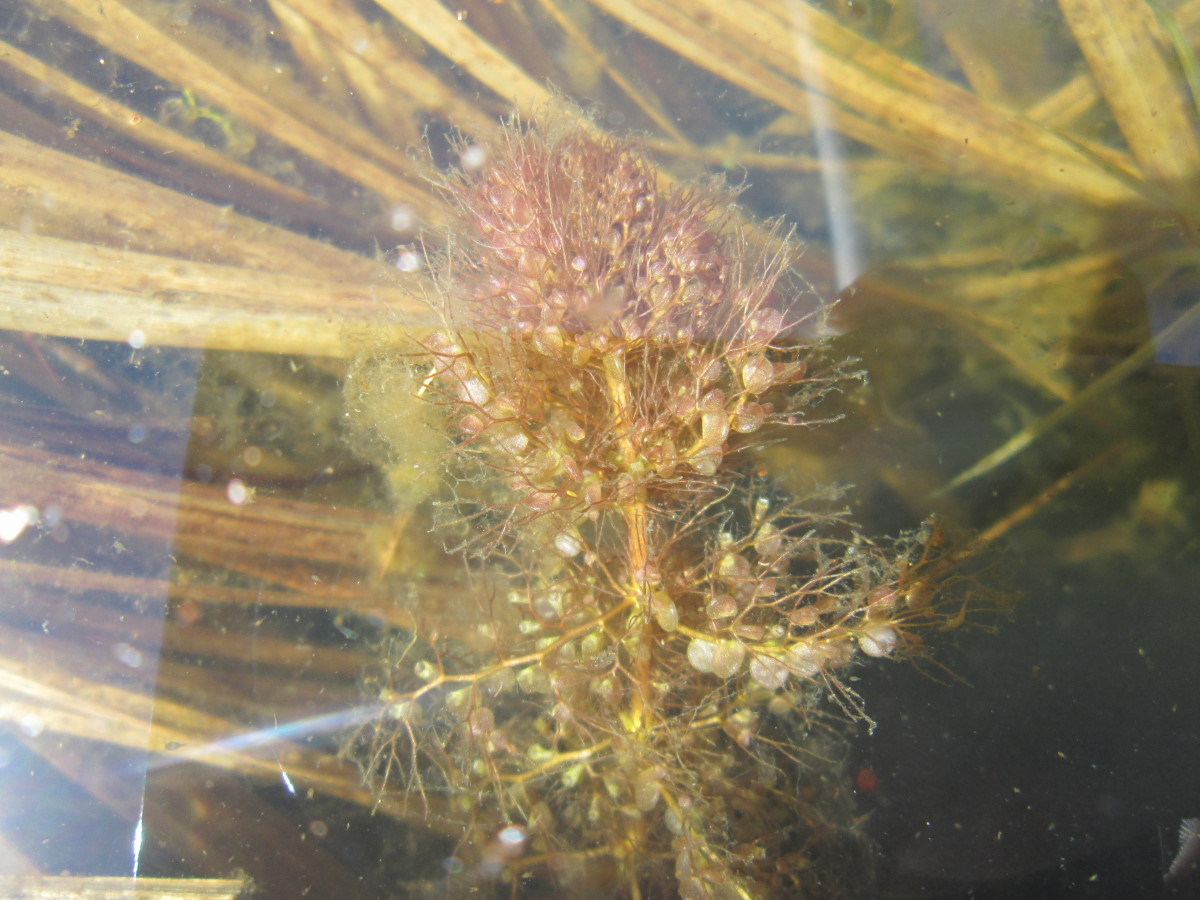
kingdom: Plantae
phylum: Tracheophyta
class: Magnoliopsida
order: Lamiales
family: Lentibulariaceae
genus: Utricularia
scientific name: Utricularia vulgaris
